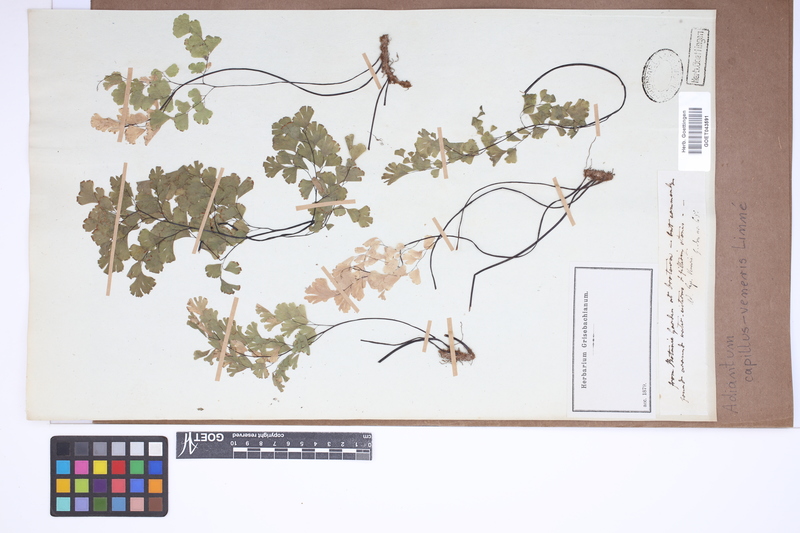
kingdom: Plantae
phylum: Tracheophyta
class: Polypodiopsida
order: Polypodiales
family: Pteridaceae
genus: Adiantum
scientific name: Adiantum capillus-veneris
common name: Maidenhair fern
